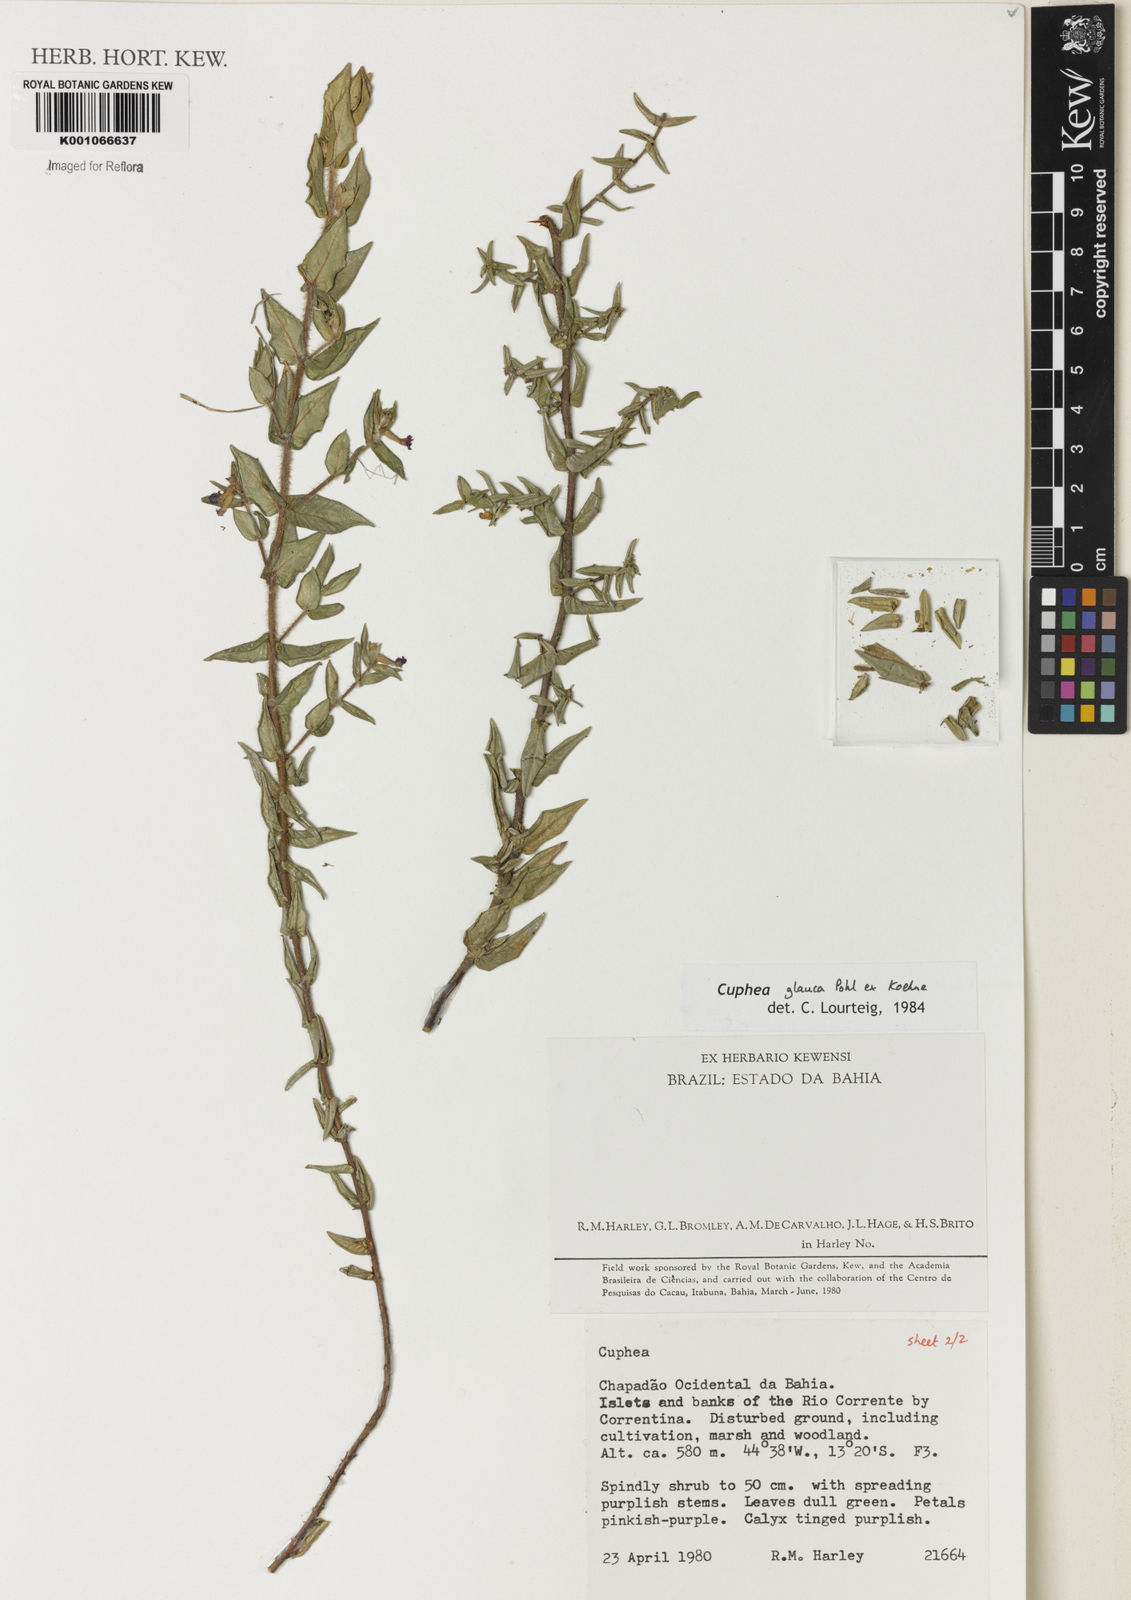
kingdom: Plantae
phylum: Tracheophyta
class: Magnoliopsida
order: Myrtales
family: Lythraceae
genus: Cuphea
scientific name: Cuphea glauca
